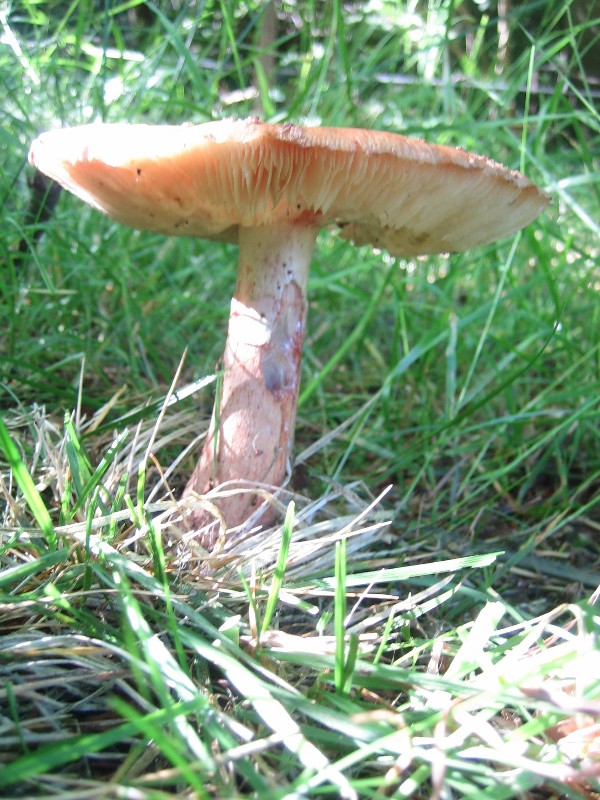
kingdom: Fungi
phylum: Basidiomycota
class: Agaricomycetes
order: Agaricales
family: Amanitaceae
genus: Amanita
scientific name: Amanita rubescens
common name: rødmende fluesvamp
